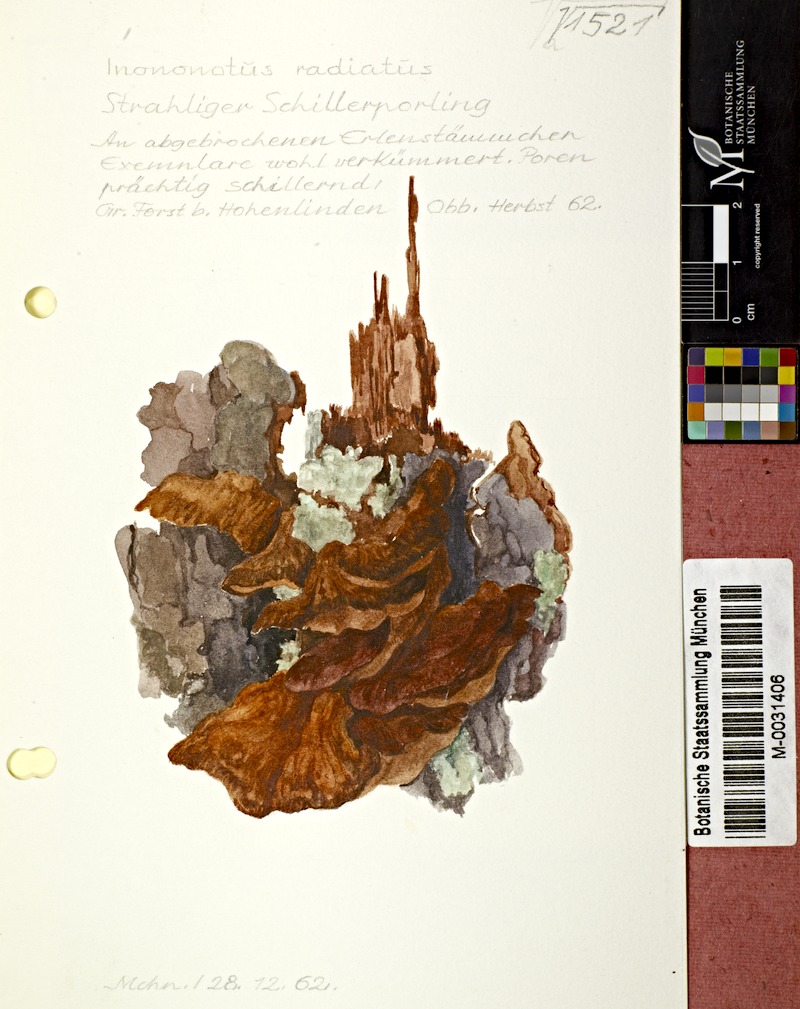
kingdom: Fungi
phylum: Basidiomycota
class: Agaricomycetes
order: Hymenochaetales
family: Hymenochaetaceae
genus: Xanthoporia
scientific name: Xanthoporia radiata
